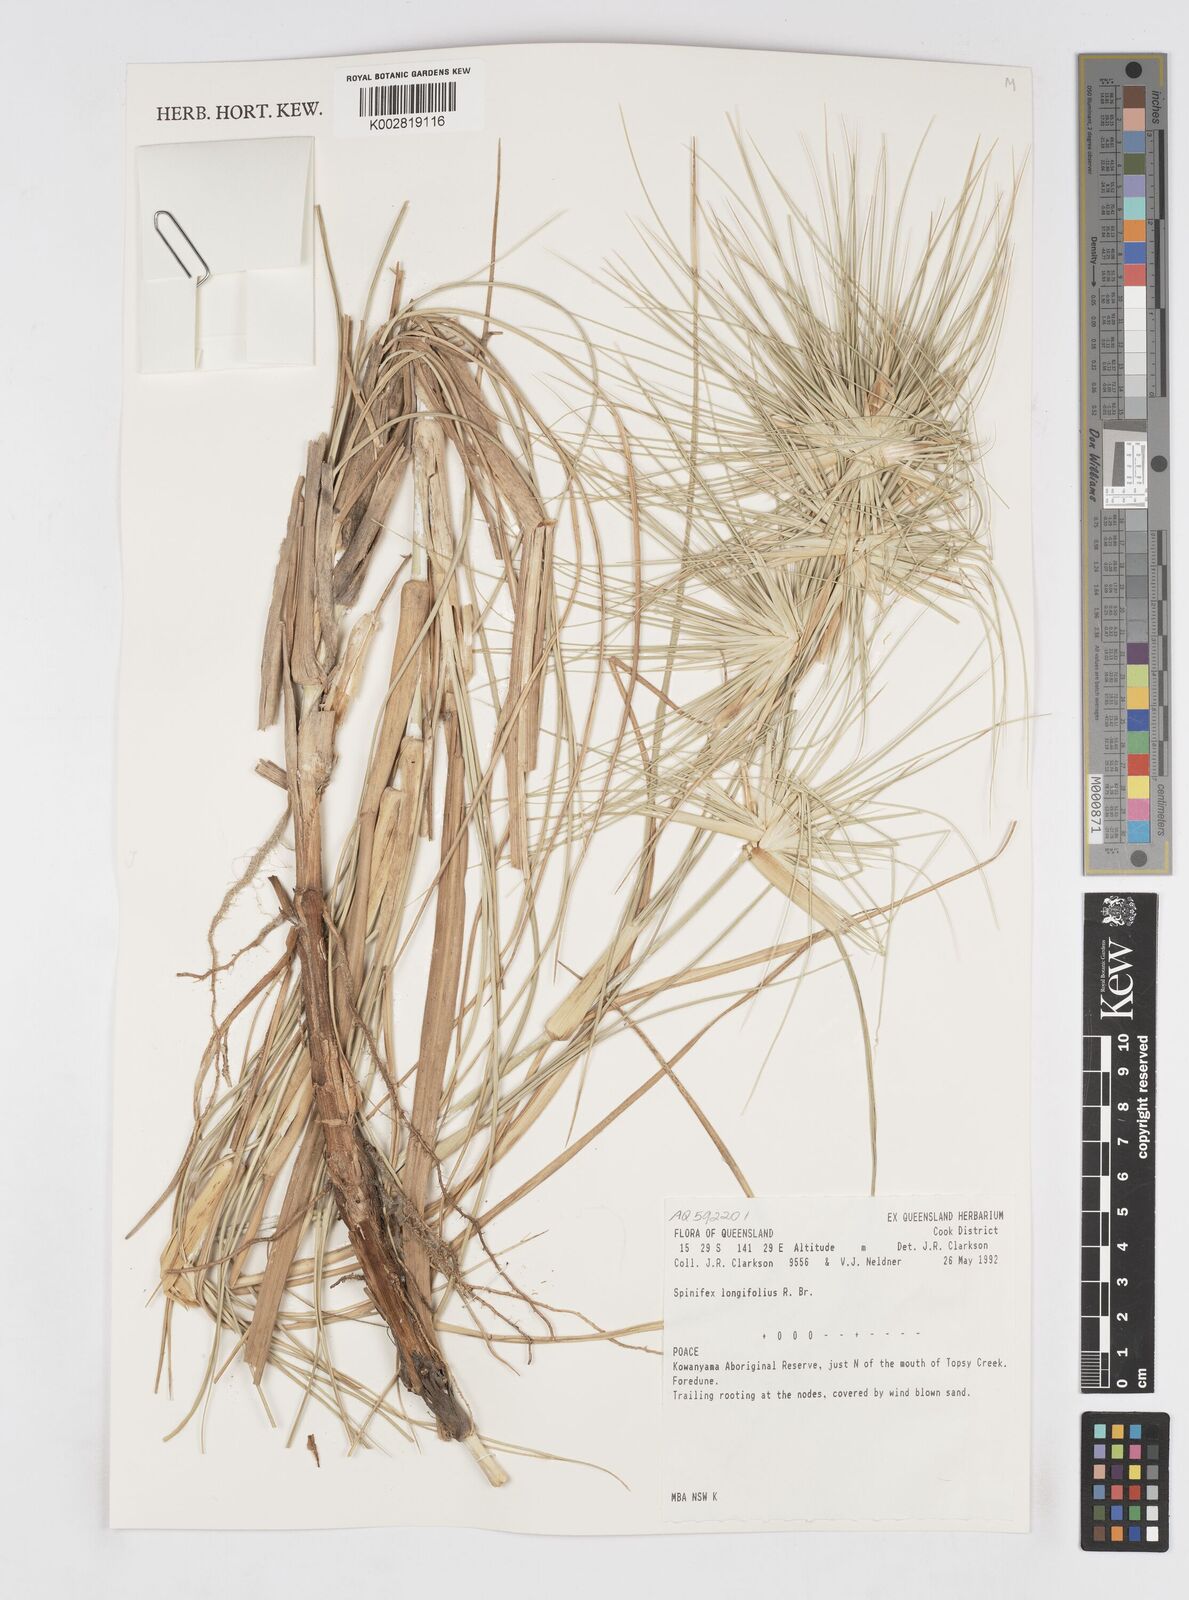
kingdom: Plantae
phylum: Tracheophyta
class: Liliopsida
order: Poales
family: Poaceae
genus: Spinifex
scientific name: Spinifex longifolius
